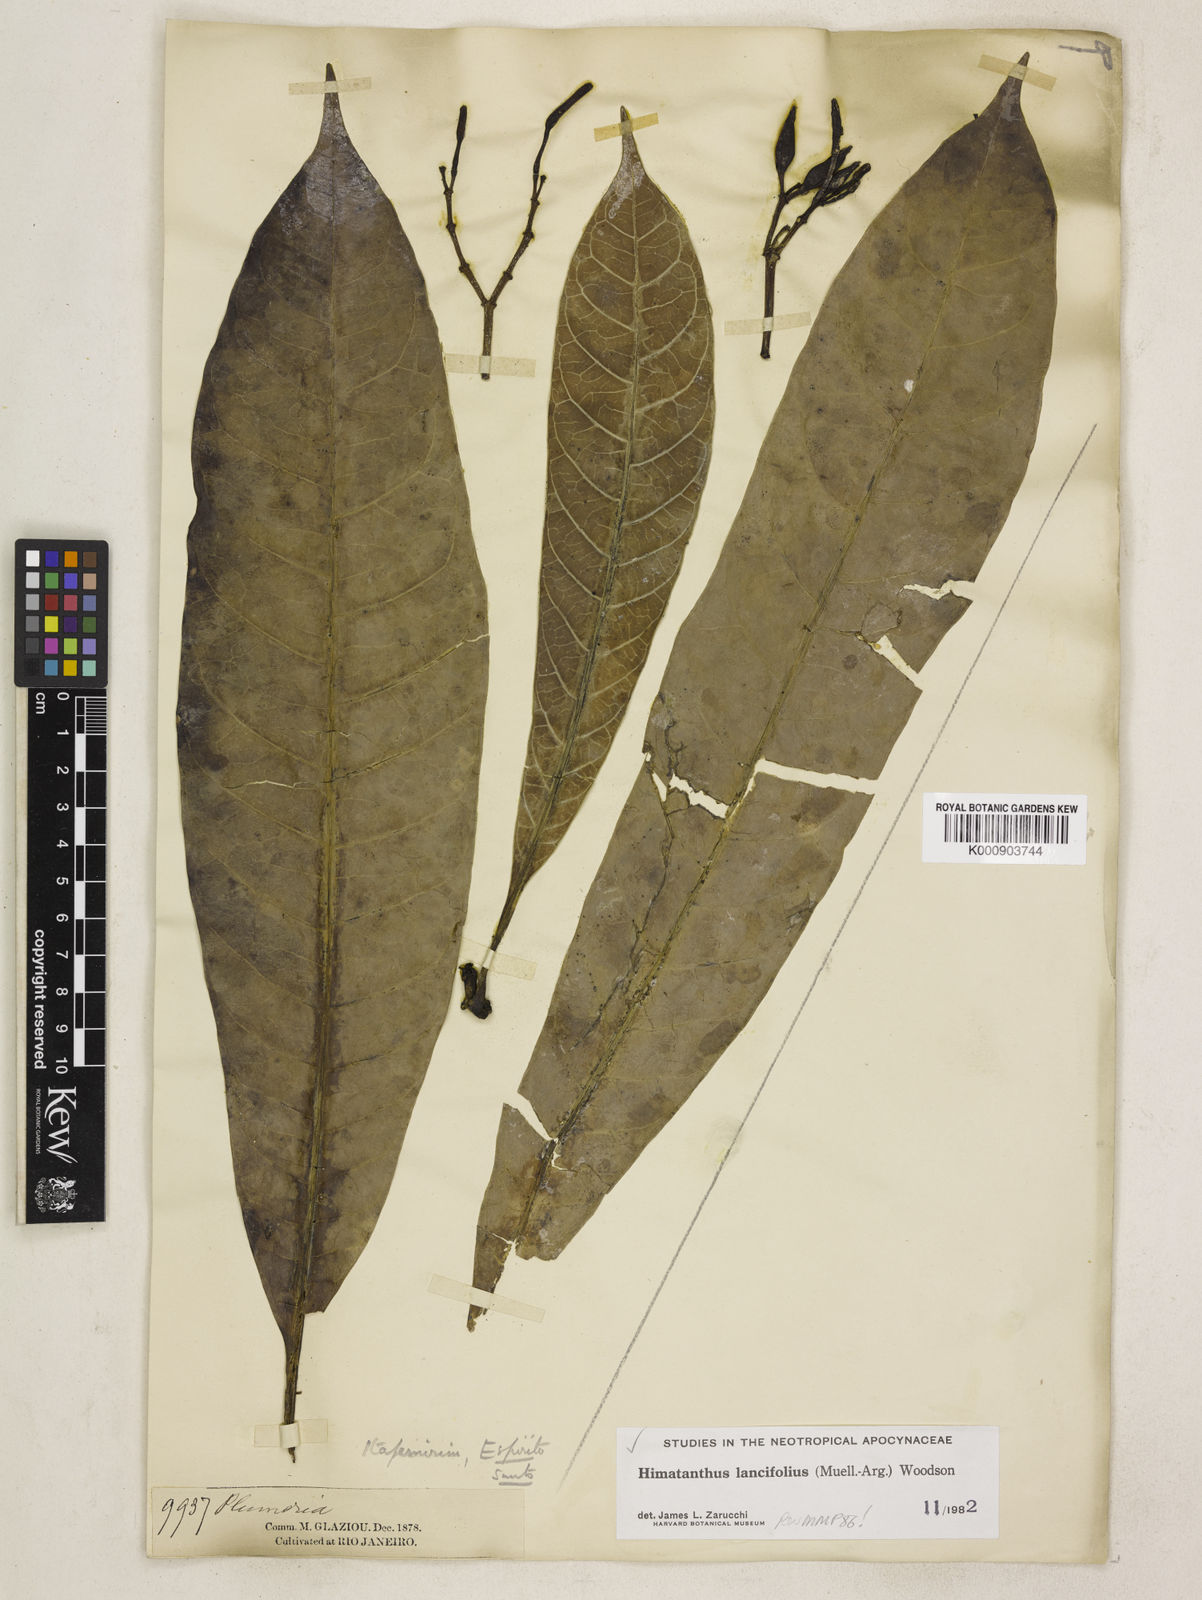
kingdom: Plantae
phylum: Tracheophyta
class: Magnoliopsida
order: Gentianales
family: Apocynaceae
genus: Himatanthus
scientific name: Himatanthus
